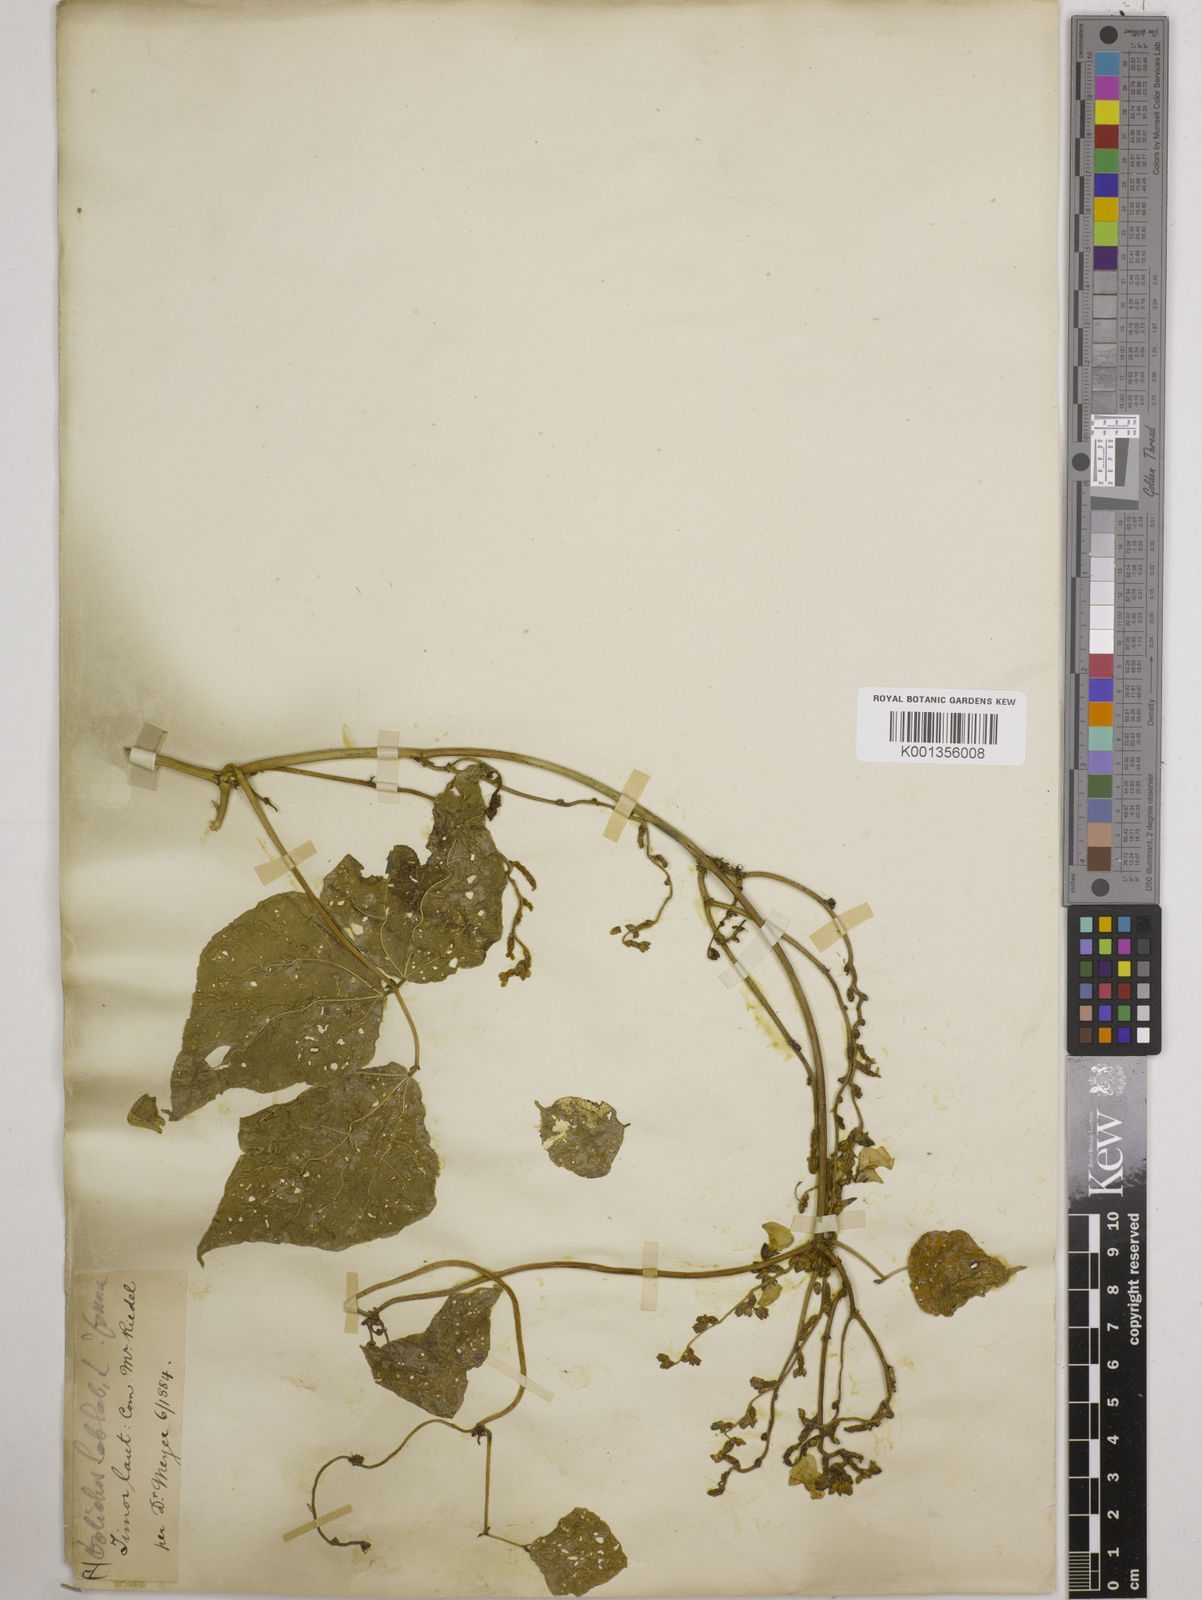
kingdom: Plantae
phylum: Tracheophyta
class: Magnoliopsida
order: Fabales
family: Fabaceae
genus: Lablab
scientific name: Lablab purpureus
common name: Lablab-bean
